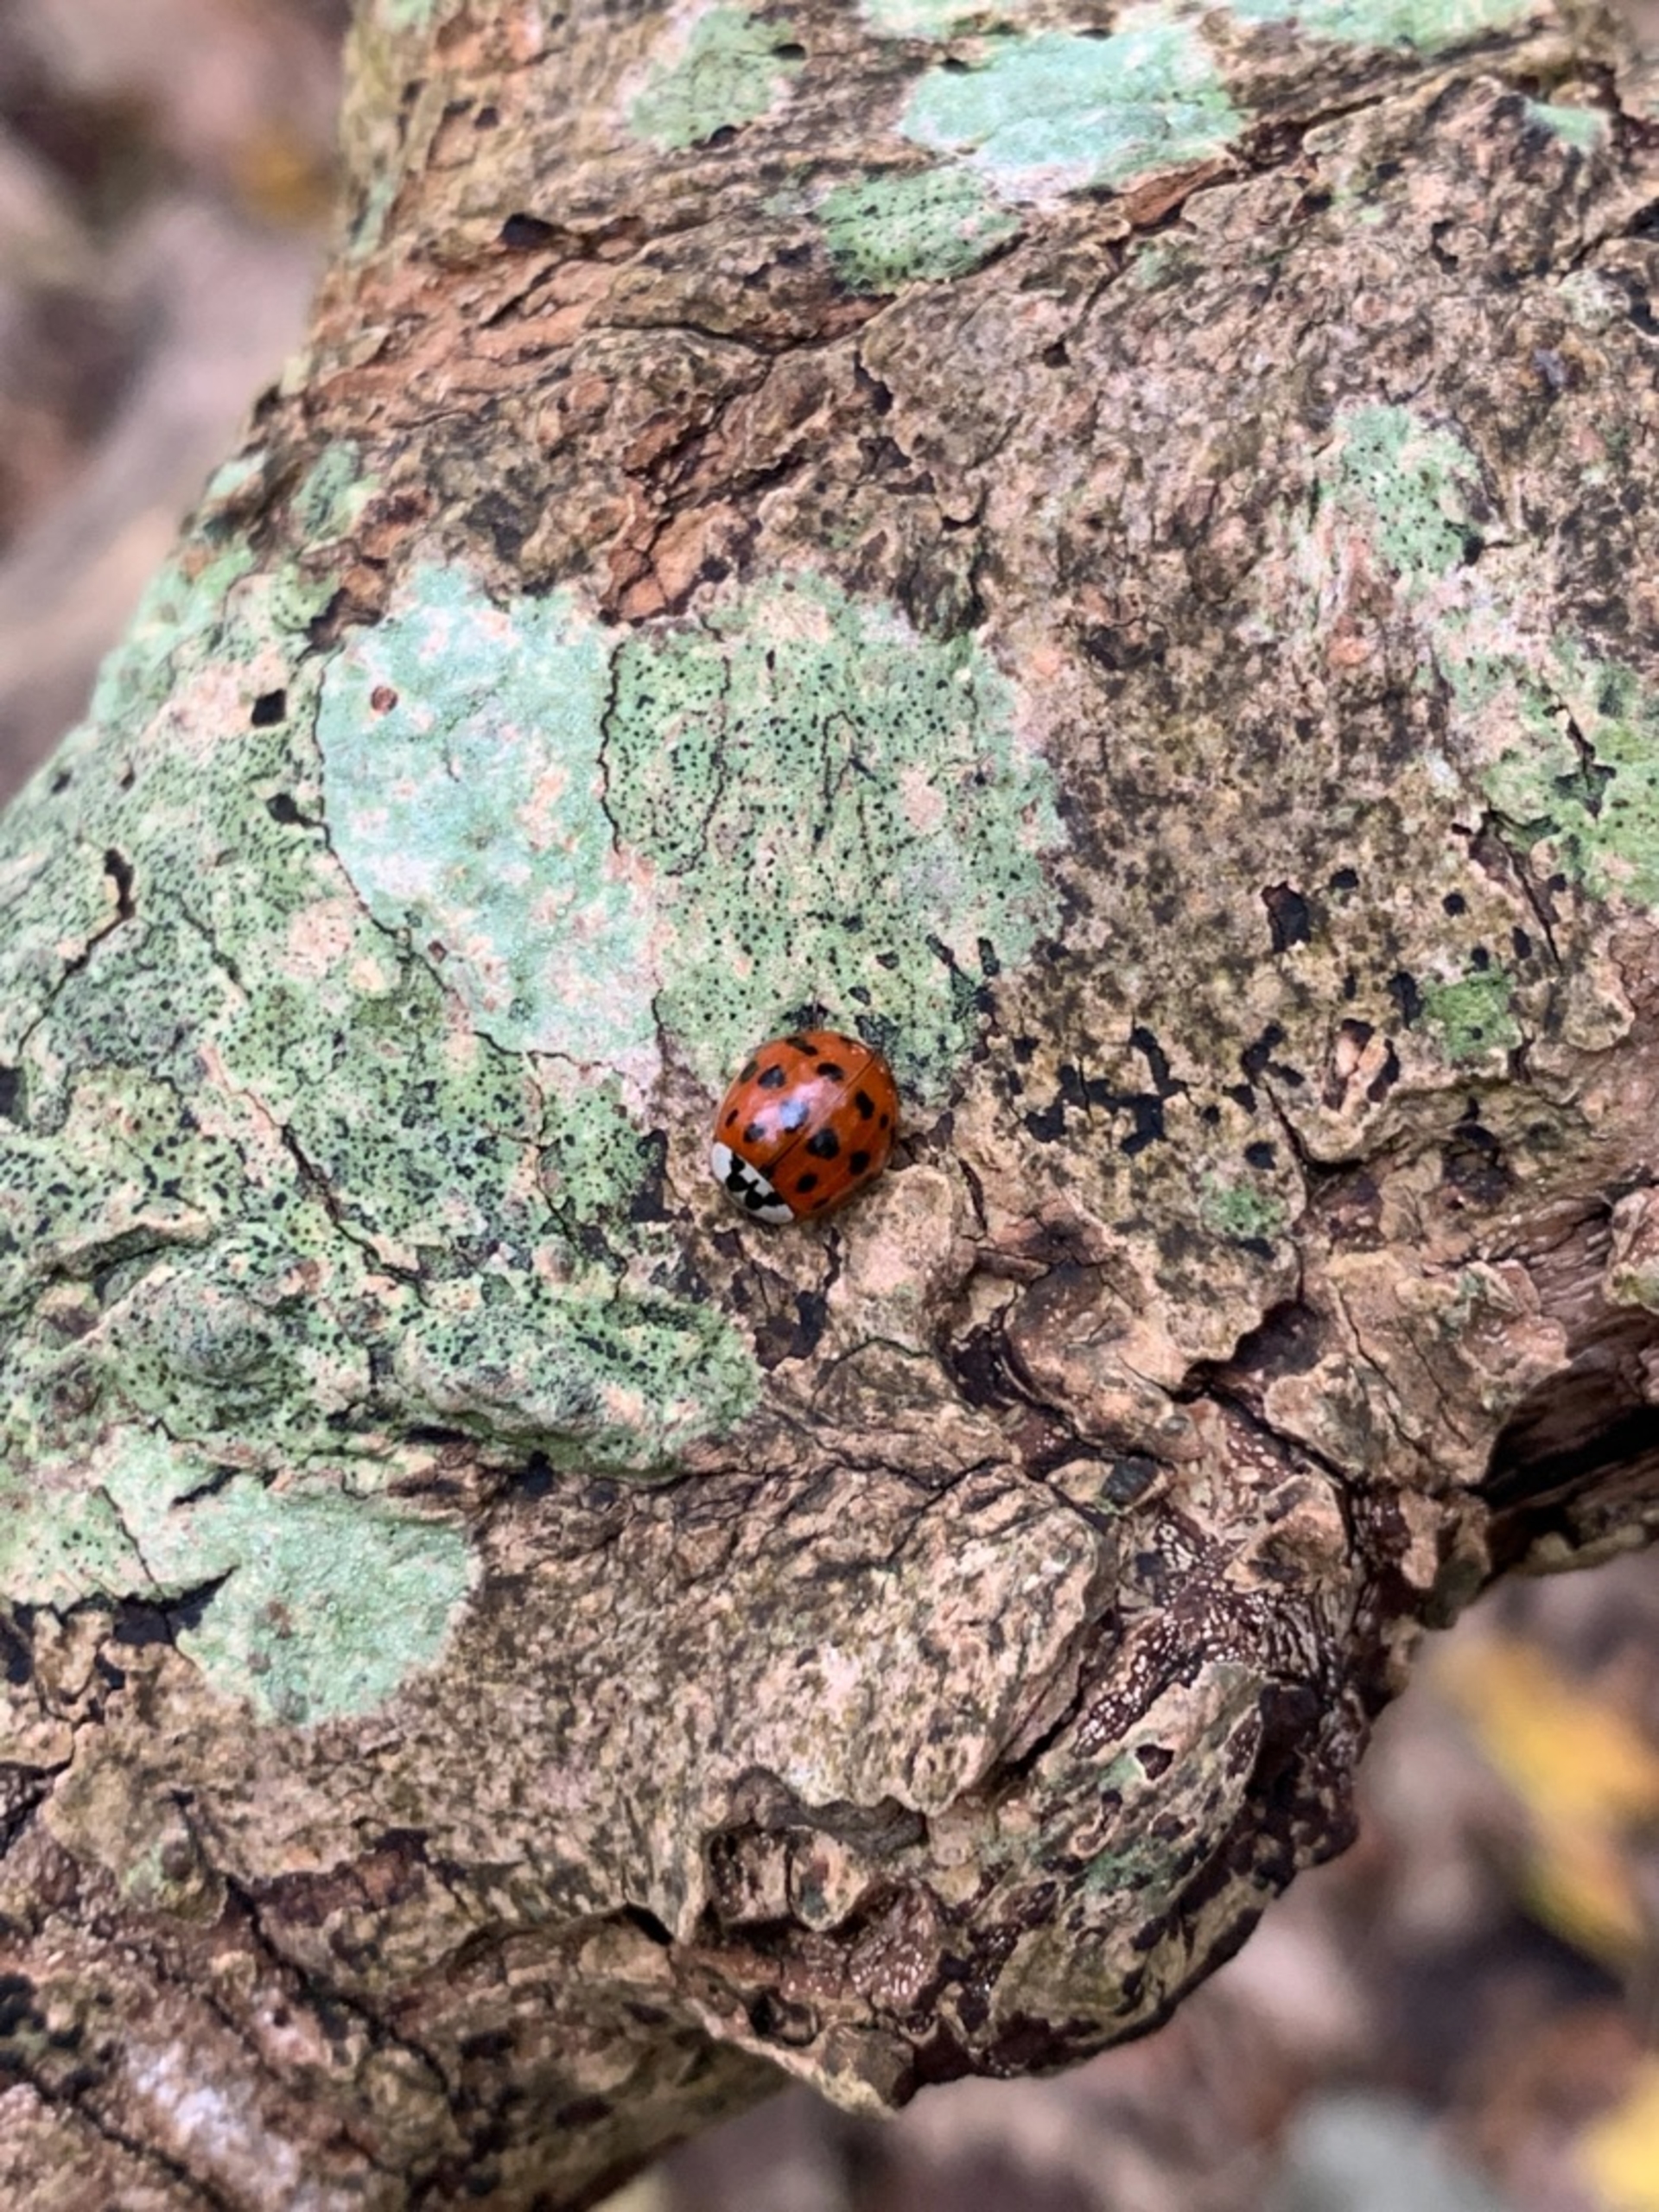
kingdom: Animalia
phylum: Arthropoda
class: Insecta
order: Coleoptera
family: Coccinellidae
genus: Harmonia
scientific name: Harmonia axyridis
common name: Harlekinmariehøne
